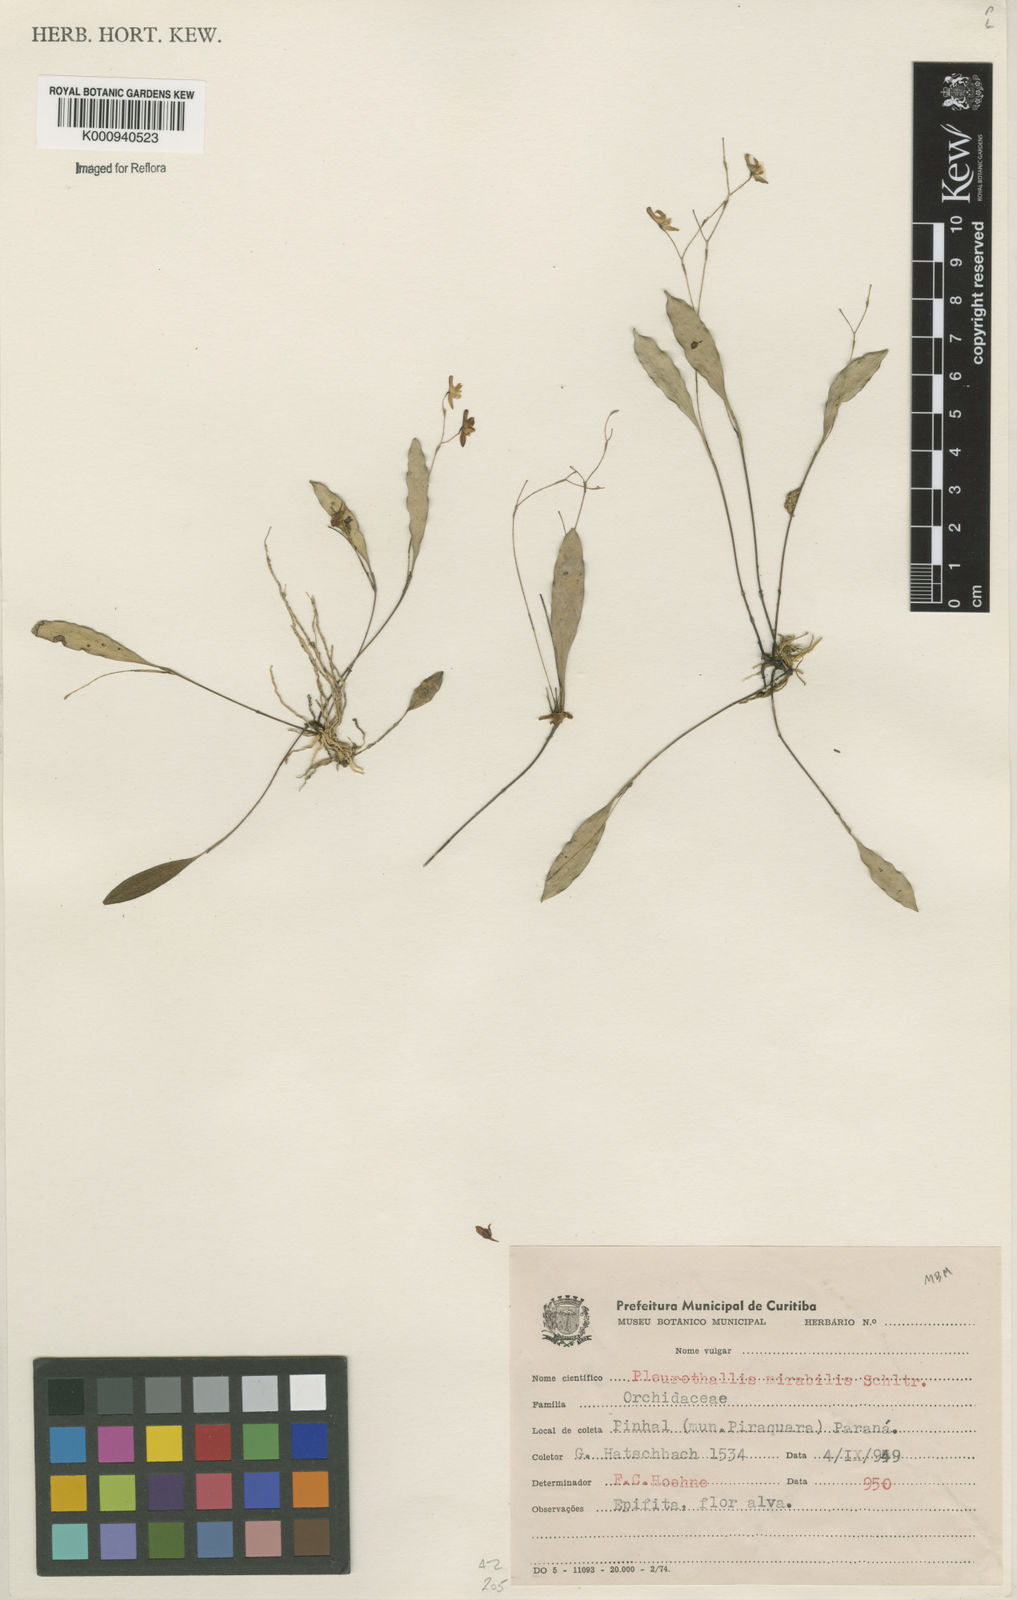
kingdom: Plantae
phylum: Tracheophyta
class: Liliopsida
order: Asparagales
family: Orchidaceae
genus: Pabstiella
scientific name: Pabstiella mirabilis
